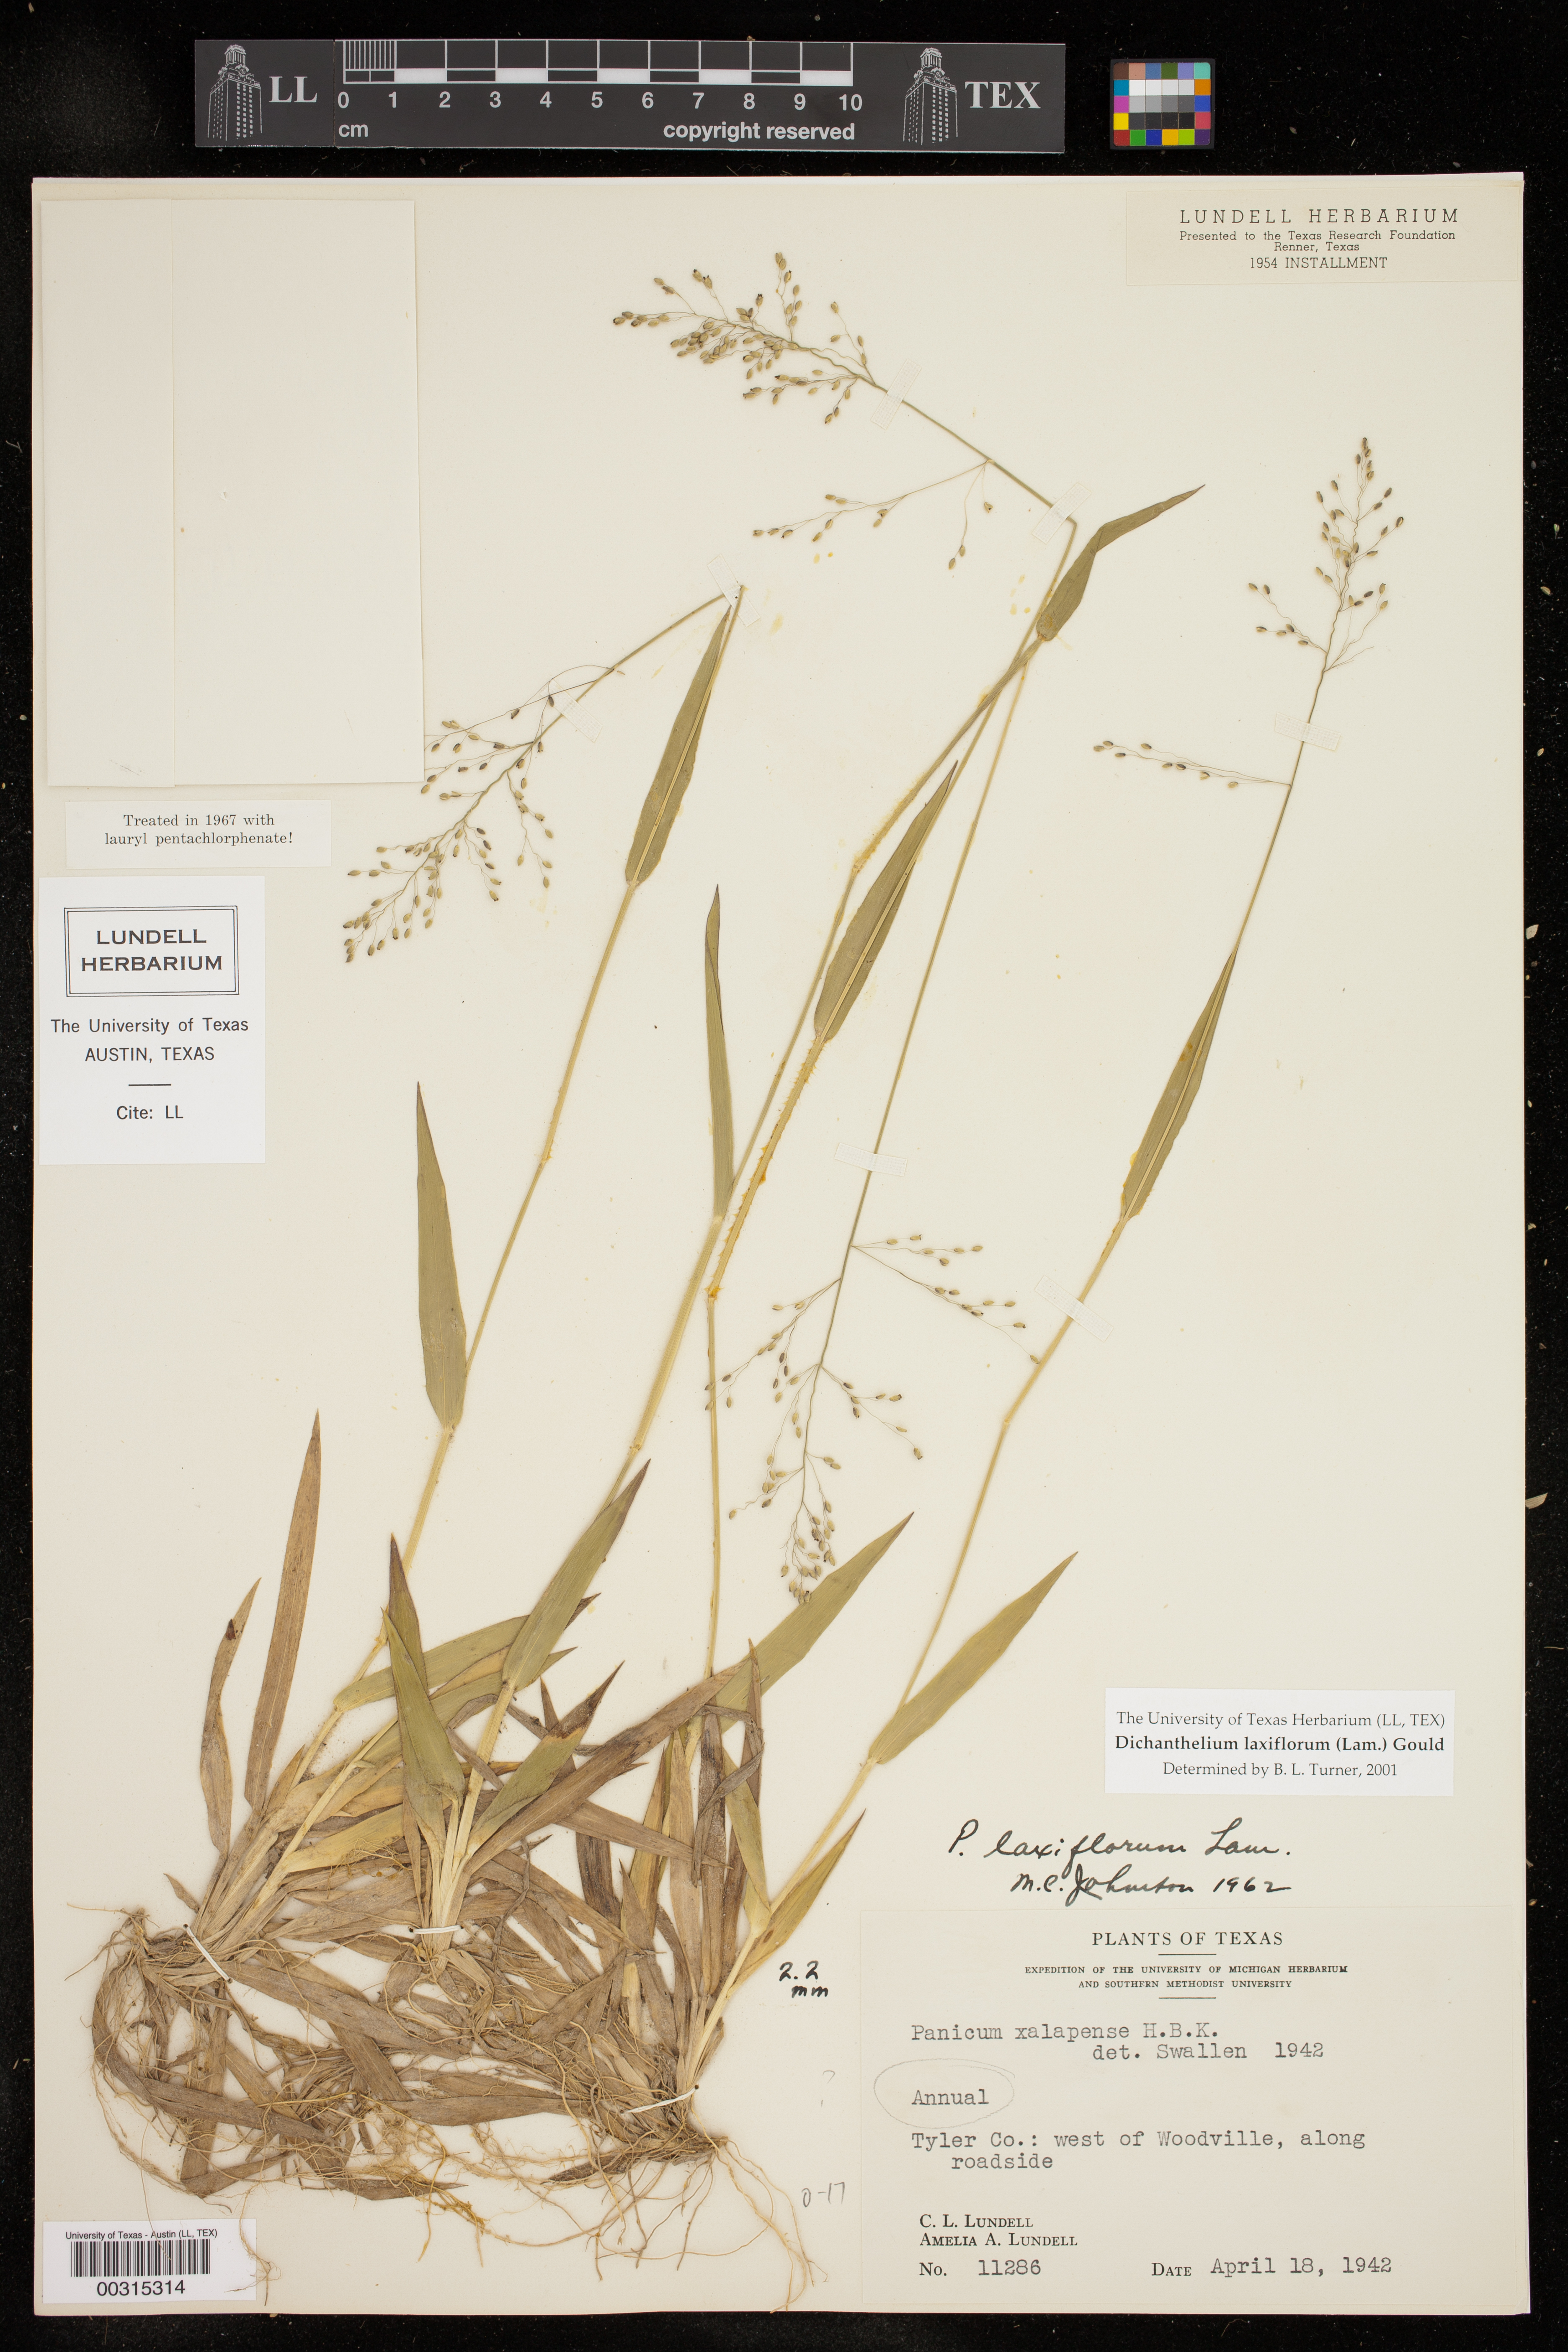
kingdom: Plantae
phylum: Tracheophyta
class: Liliopsida
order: Poales
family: Poaceae
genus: Dichanthelium
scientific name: Dichanthelium laxiflorum
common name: Soft-tuft panic grass
